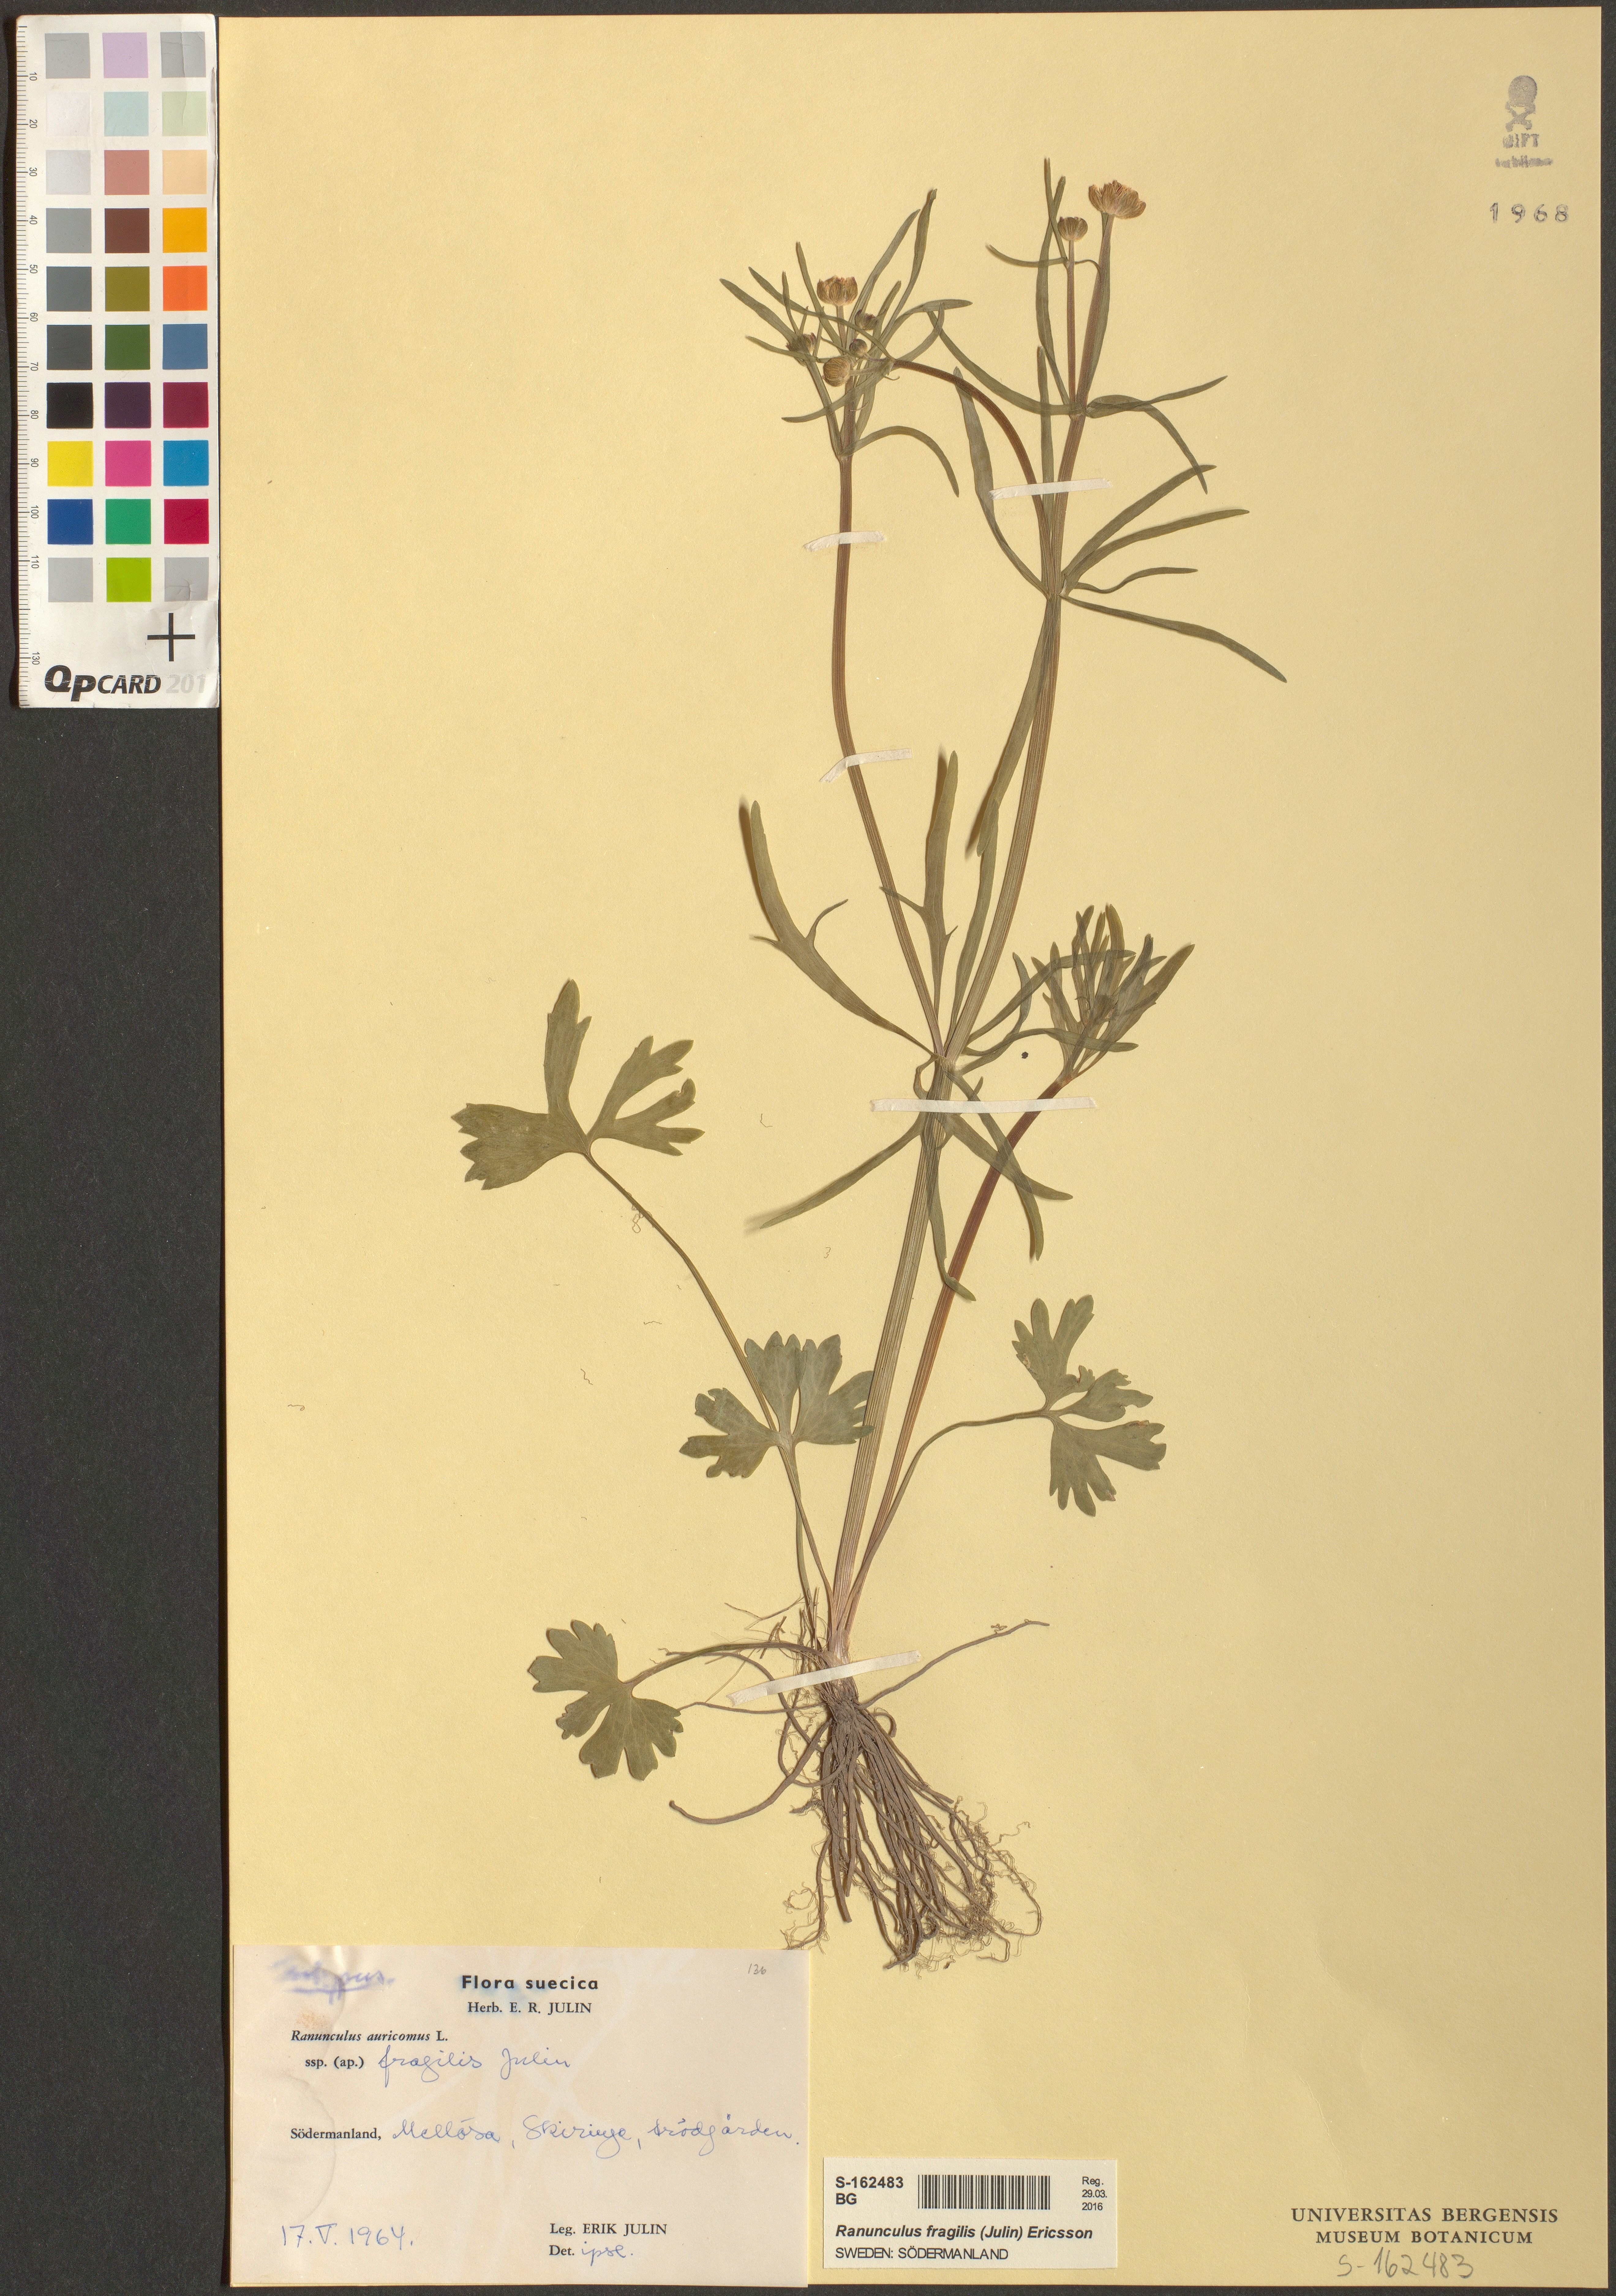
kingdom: Plantae
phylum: Tracheophyta
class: Magnoliopsida
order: Ranunculales
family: Ranunculaceae
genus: Ranunculus
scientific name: Ranunculus fragilis
